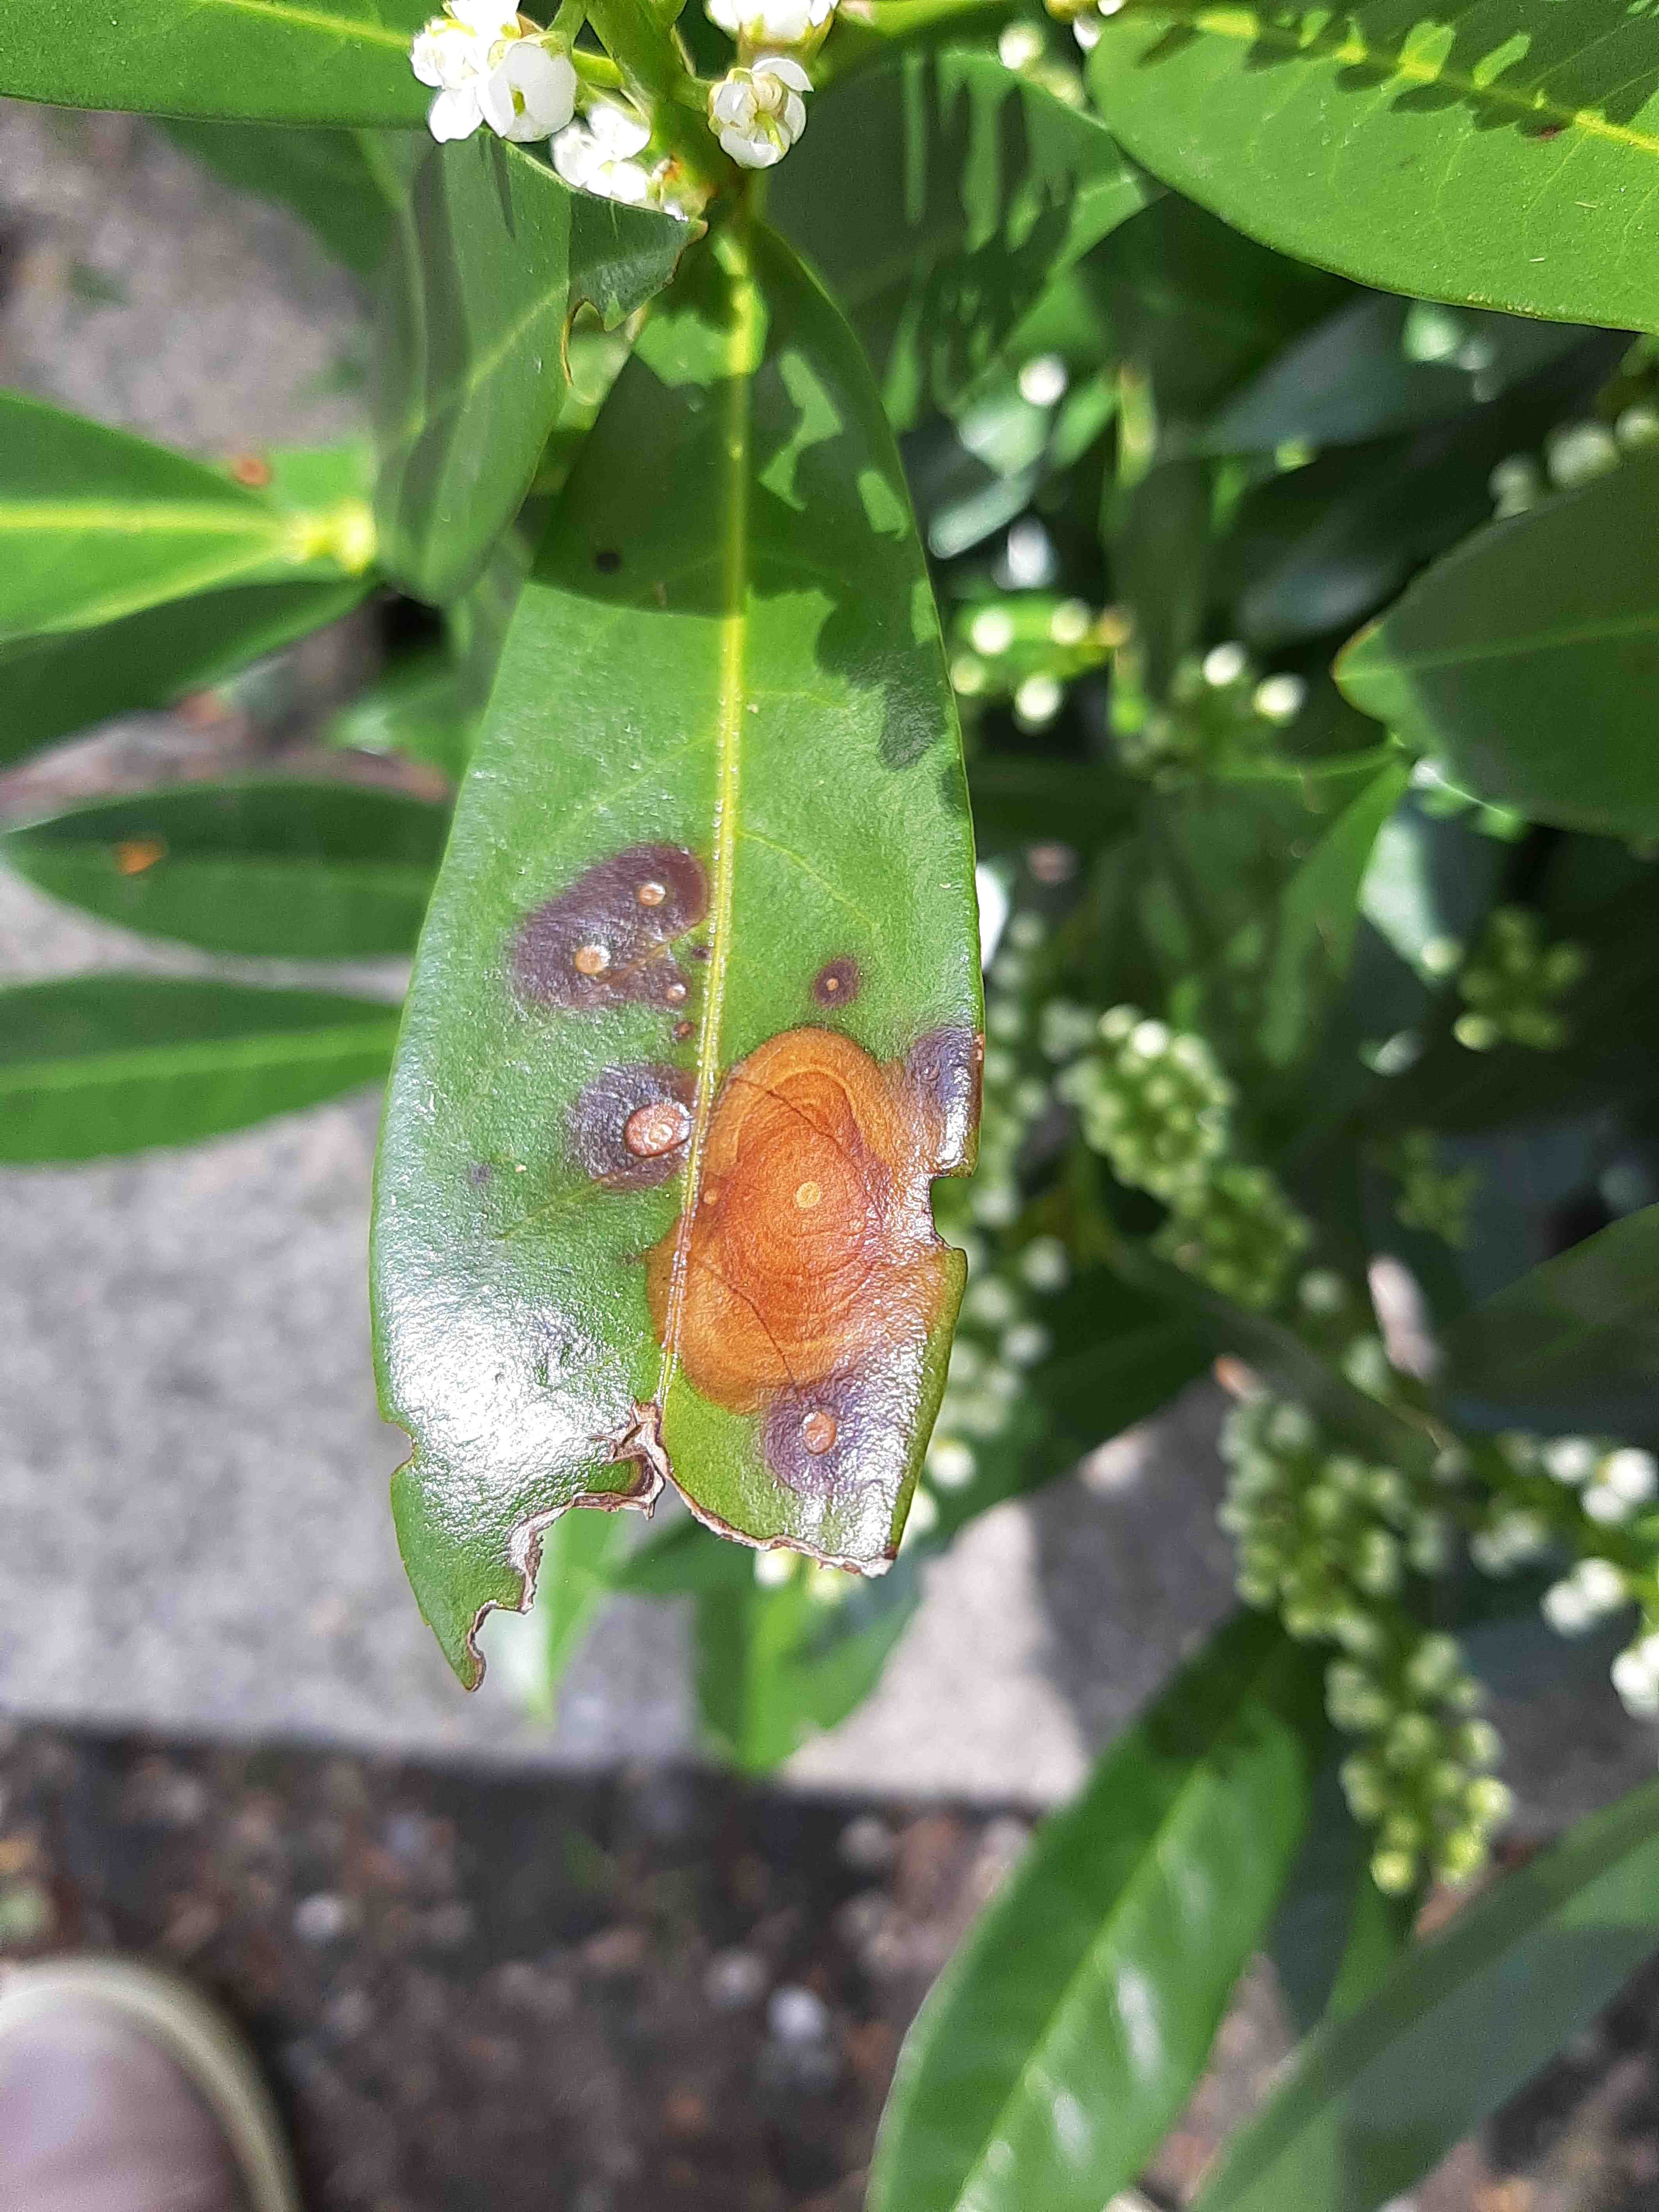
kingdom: Fungi
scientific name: Fungi
